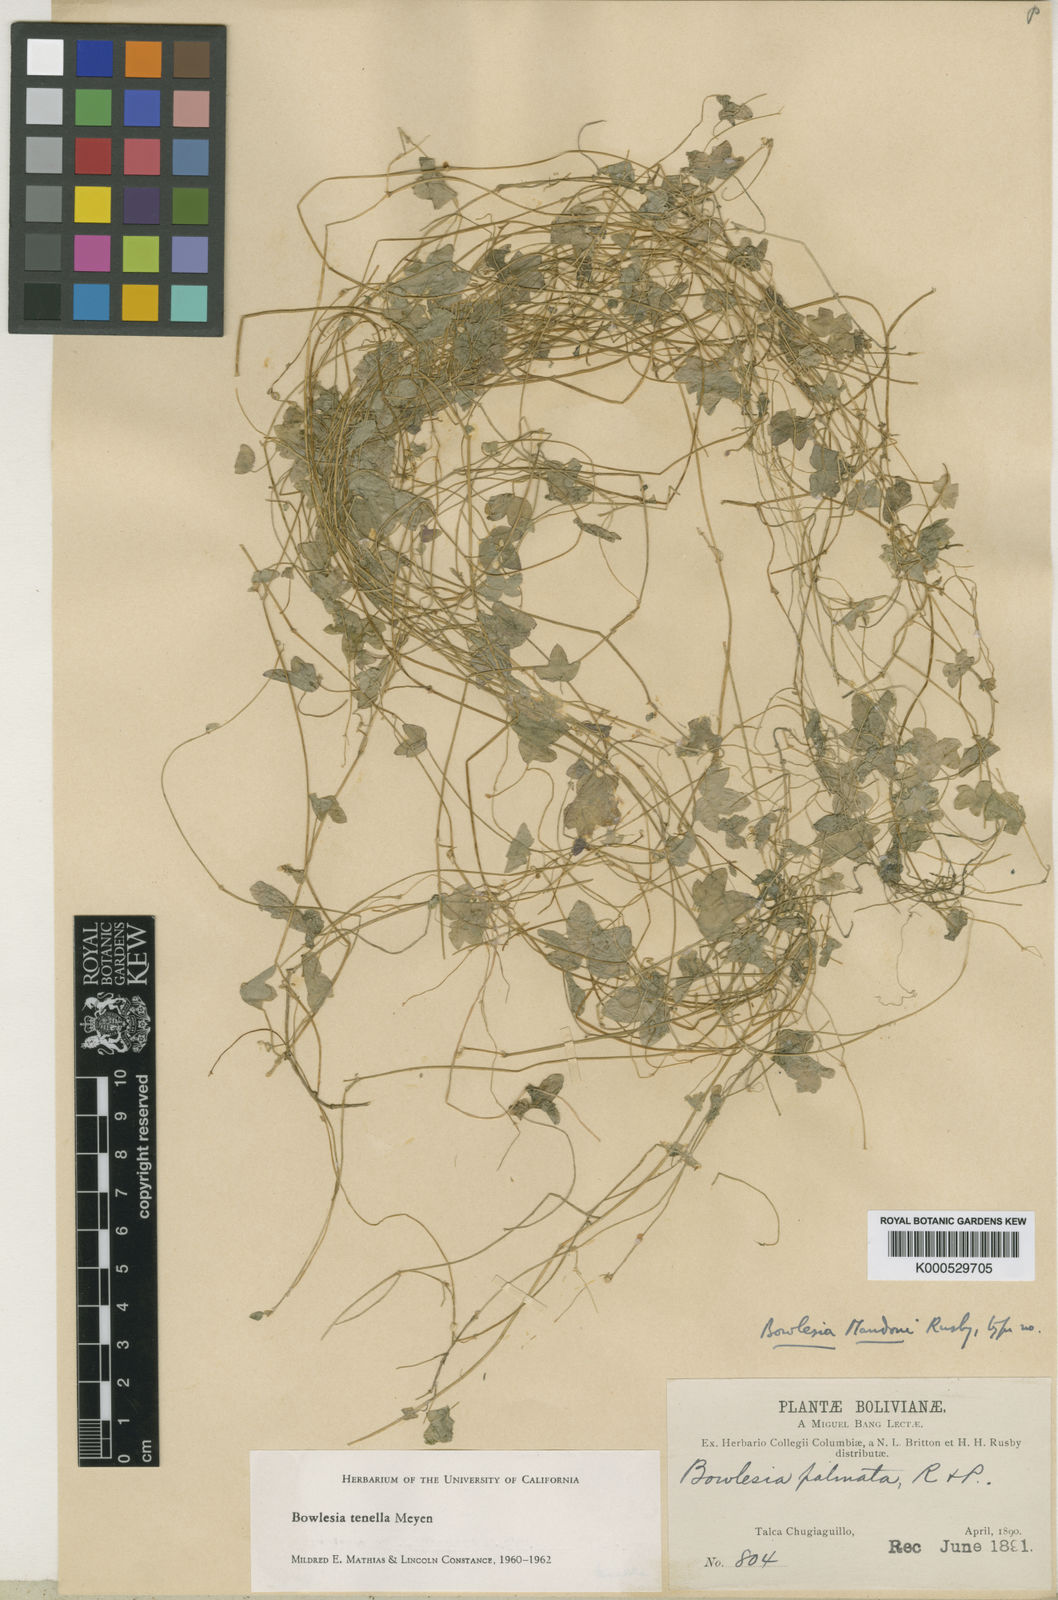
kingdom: Plantae
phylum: Tracheophyta
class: Magnoliopsida
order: Apiales
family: Apiaceae
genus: Bowlesia
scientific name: Bowlesia tenella
